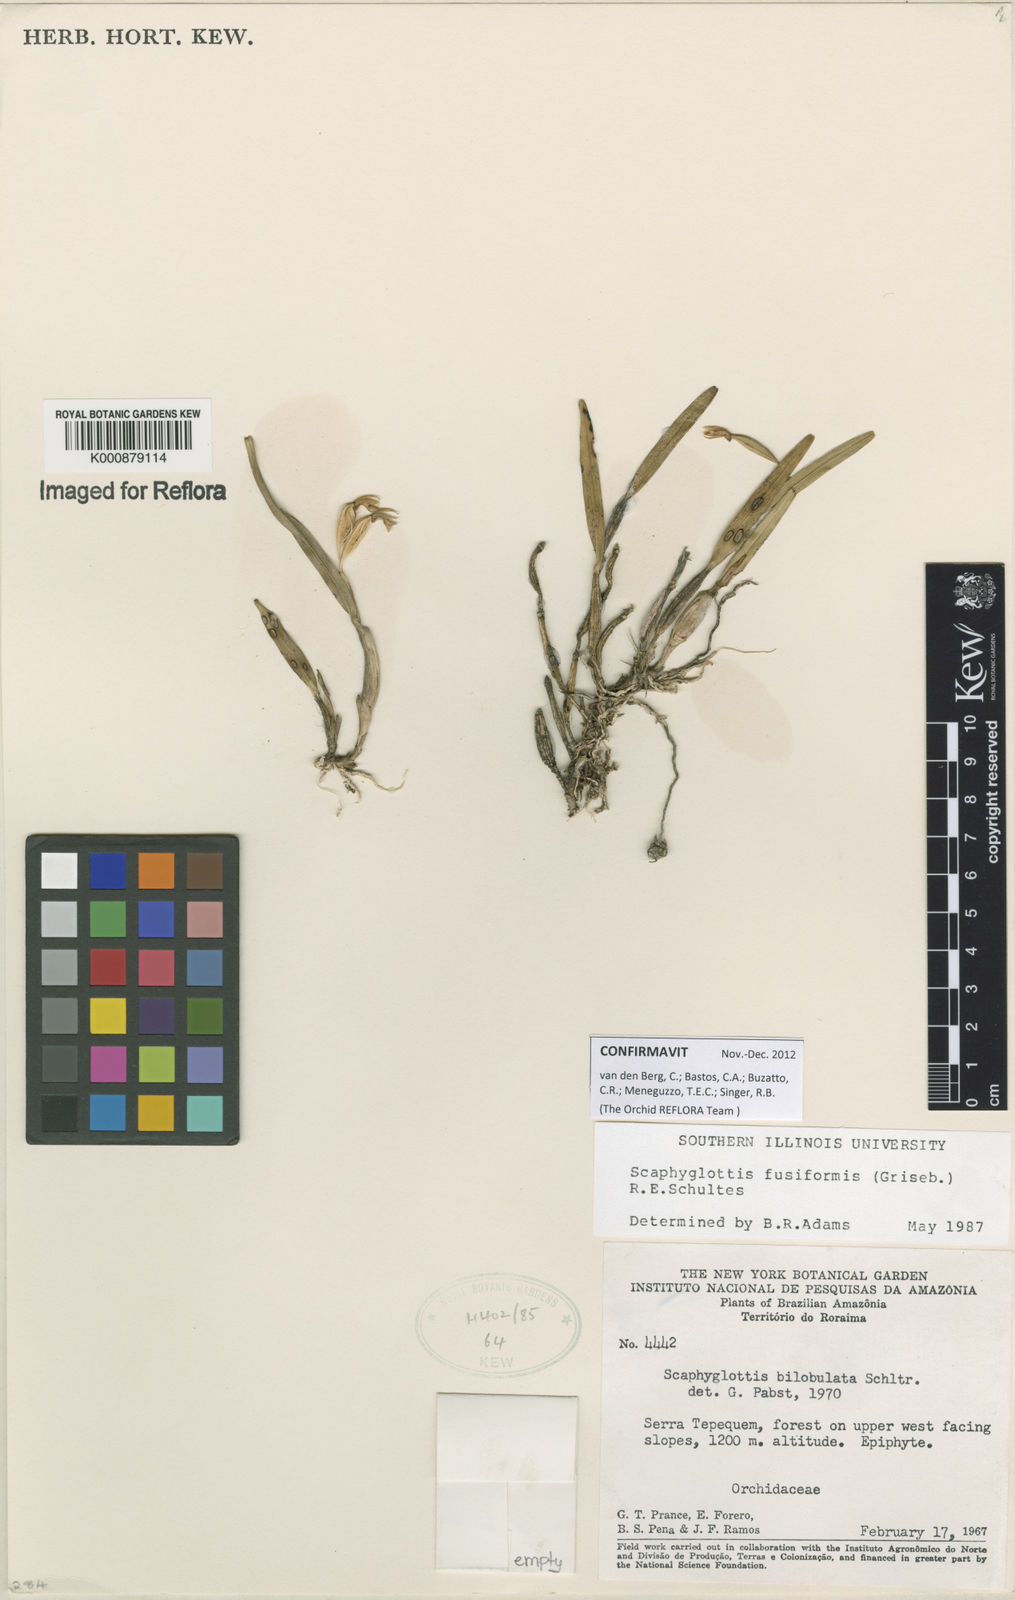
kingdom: Plantae
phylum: Tracheophyta
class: Liliopsida
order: Asparagales
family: Orchidaceae
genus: Scaphyglottis
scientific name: Scaphyglottis fusiformis
